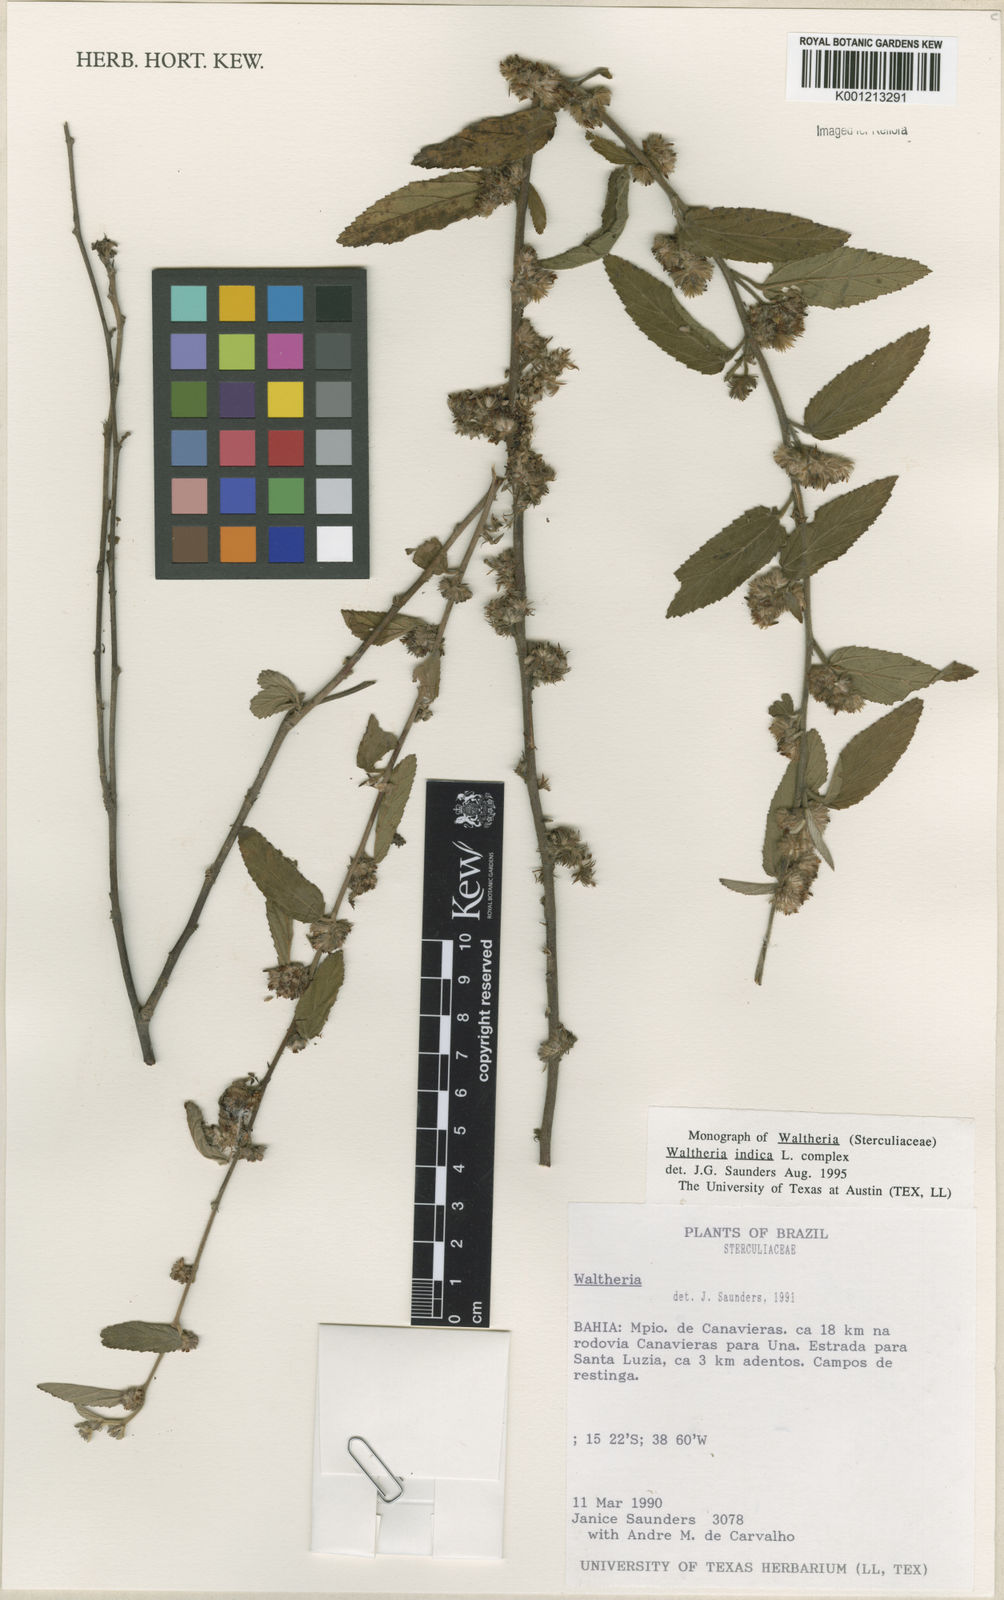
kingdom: Plantae
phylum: Tracheophyta
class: Magnoliopsida
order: Malvales
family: Malvaceae
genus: Waltheria
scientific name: Waltheria indica
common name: Leather-coat
